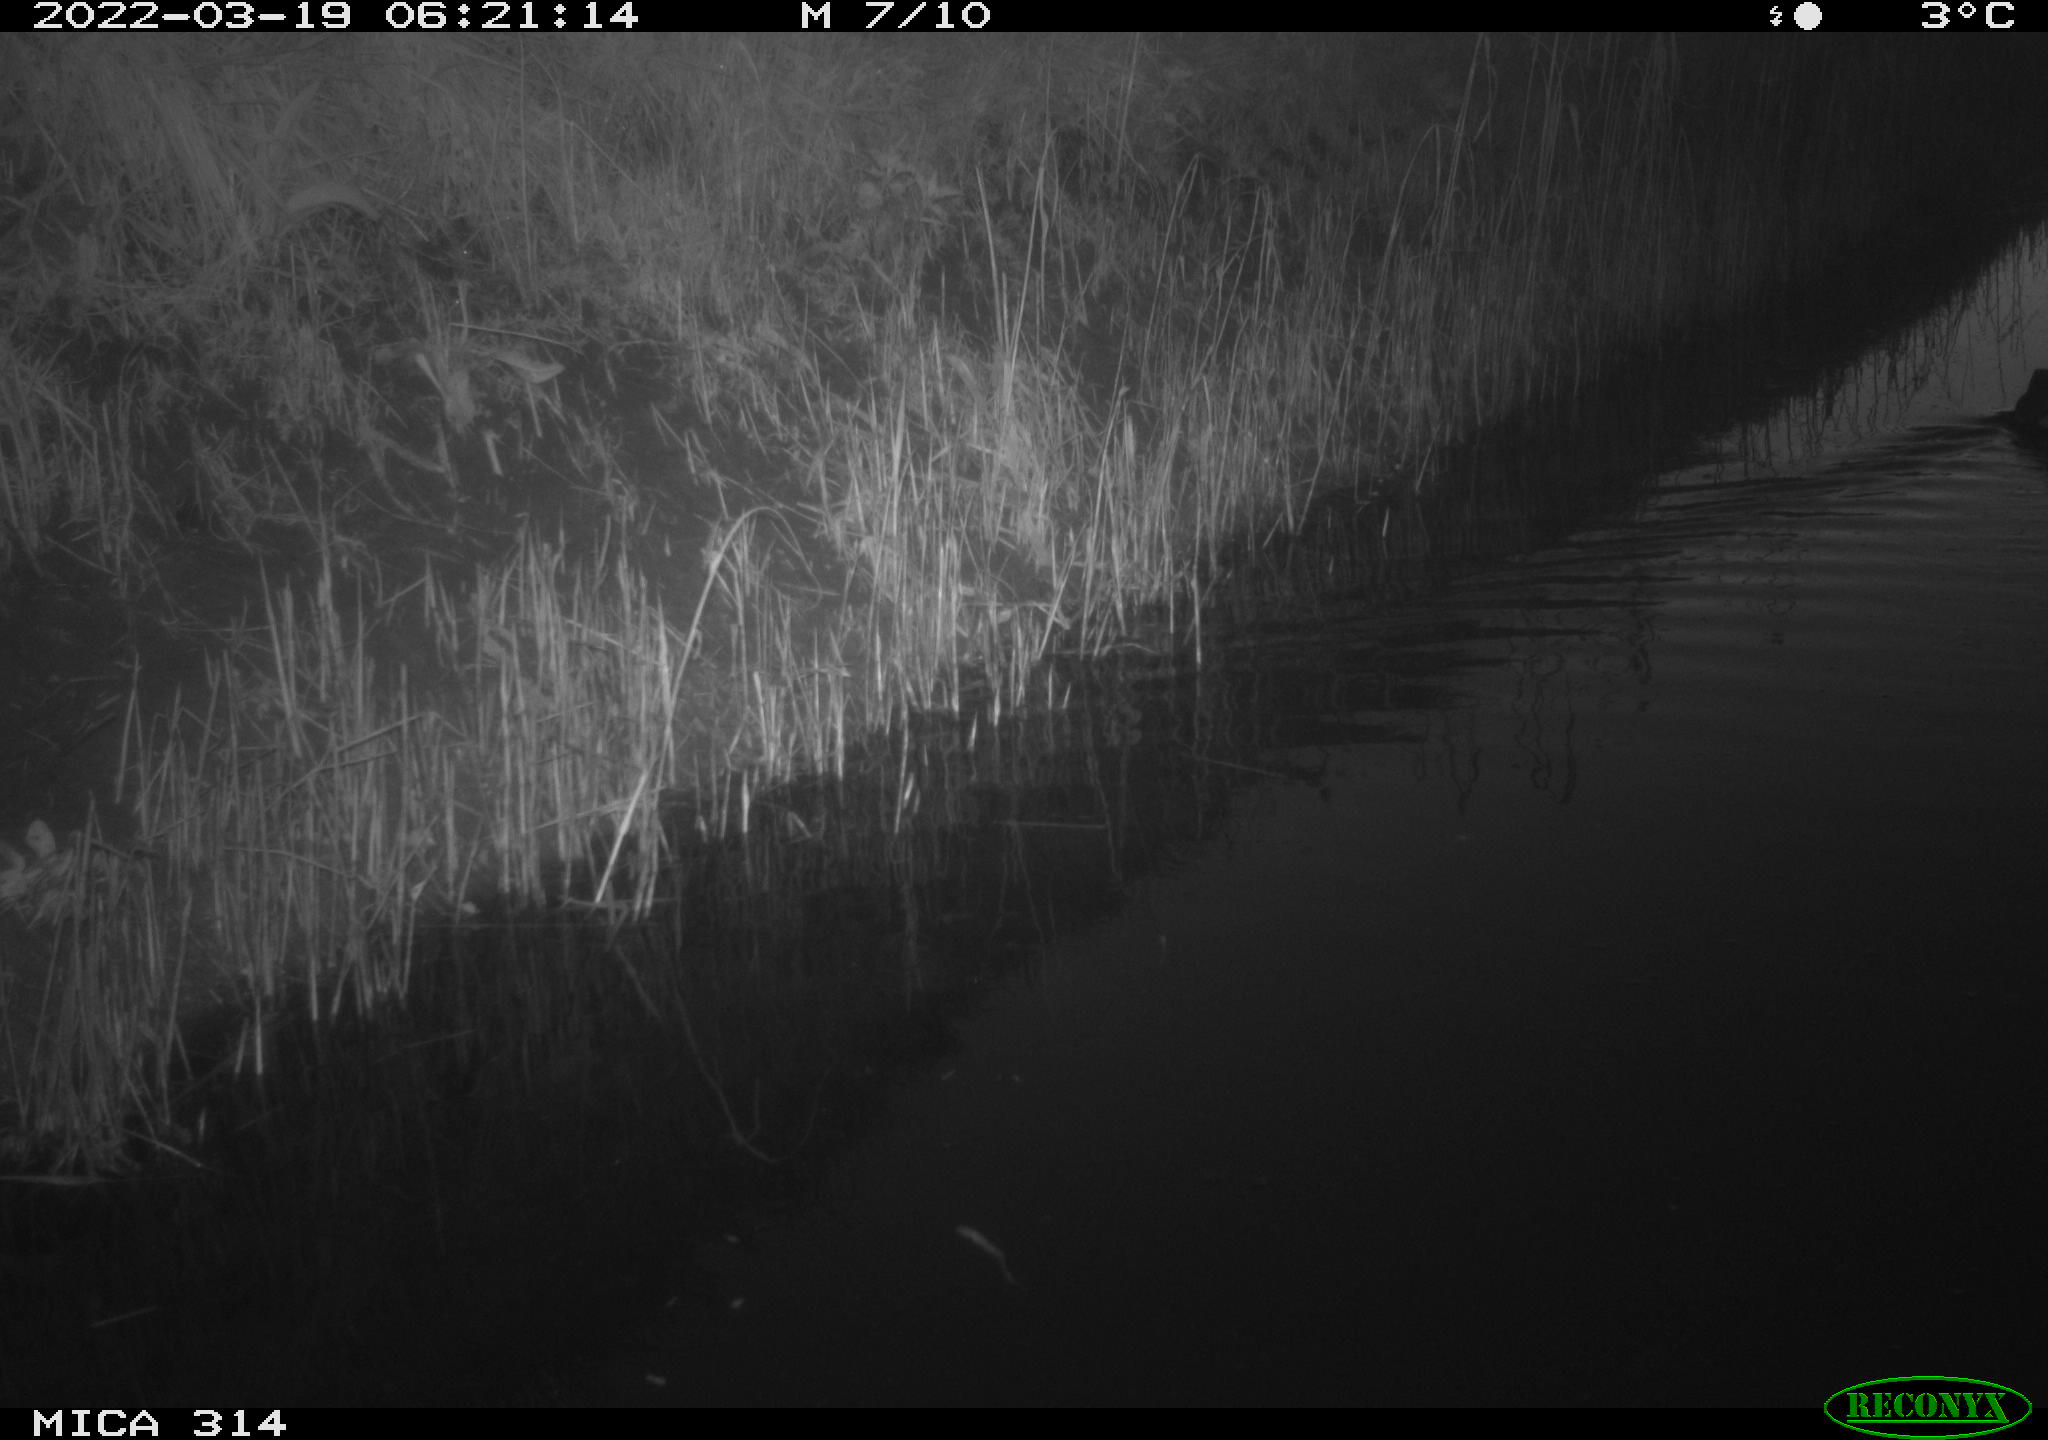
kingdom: Animalia
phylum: Chordata
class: Aves
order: Gruiformes
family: Rallidae
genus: Gallinula
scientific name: Gallinula chloropus
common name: Common moorhen
